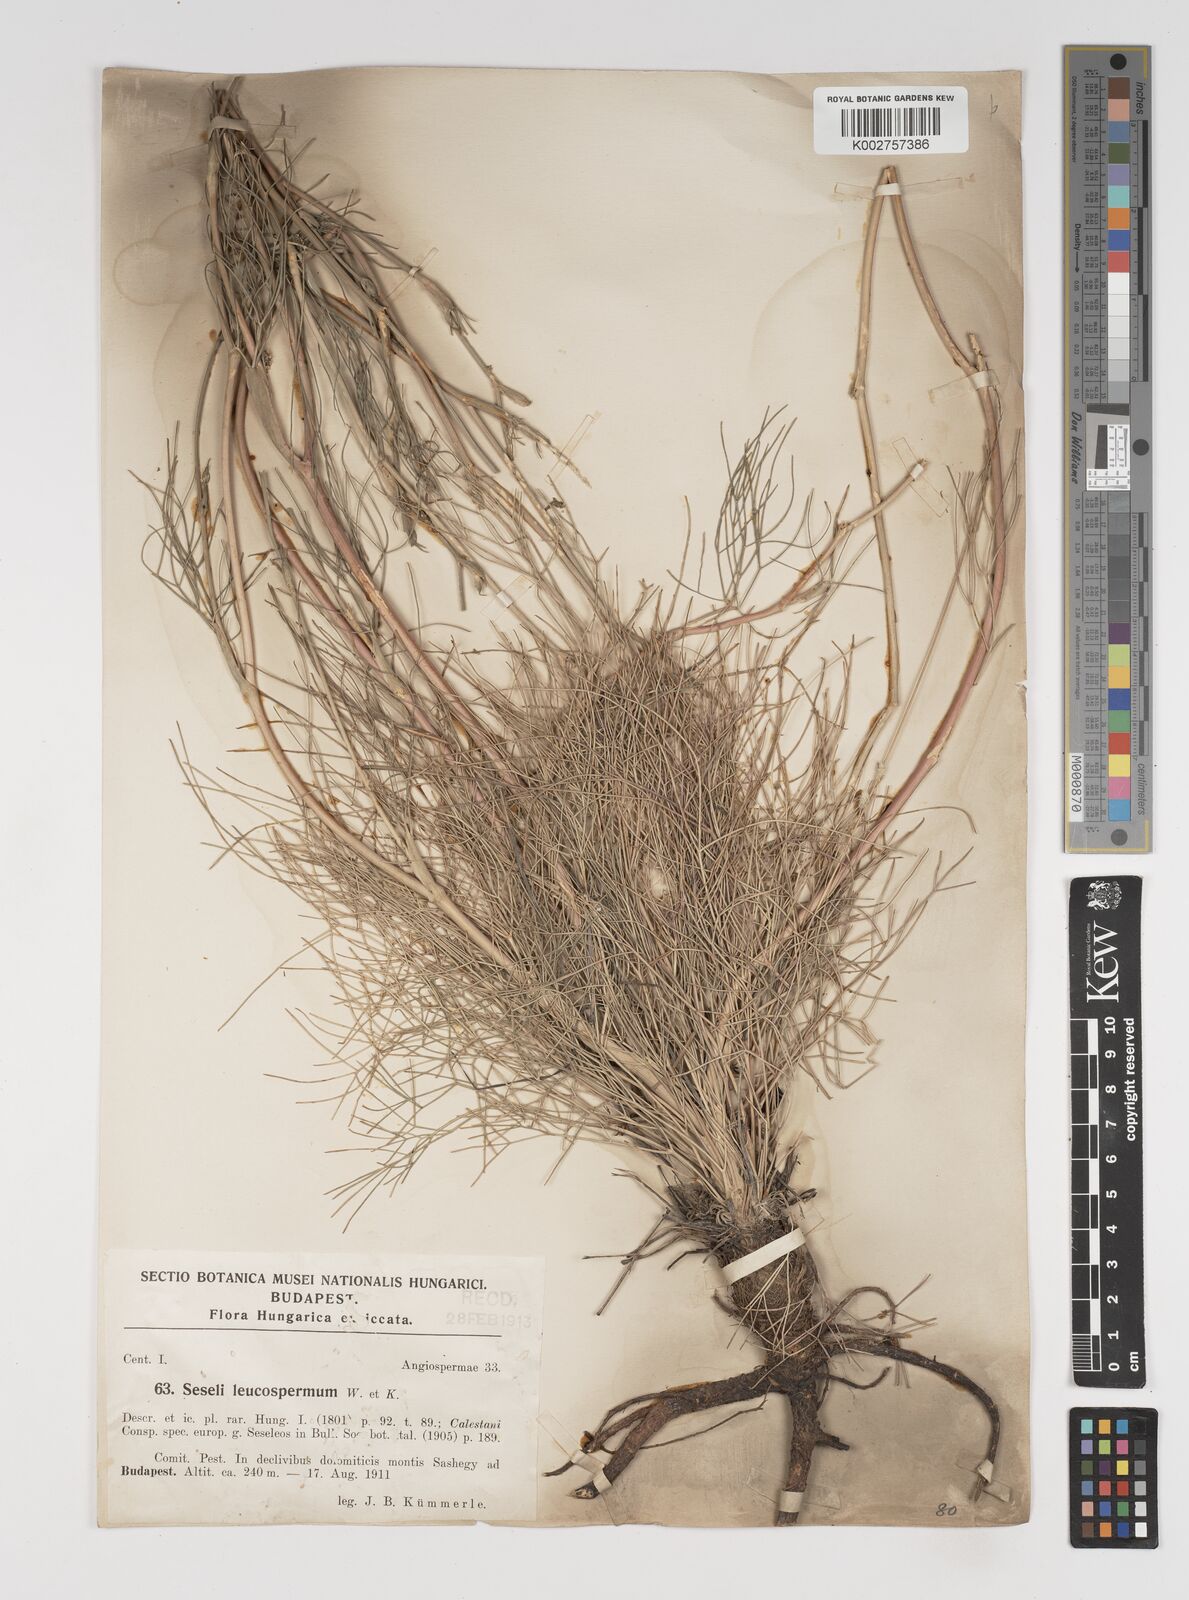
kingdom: Plantae
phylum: Tracheophyta
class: Magnoliopsida
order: Apiales
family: Apiaceae
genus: Seseli
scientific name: Seseli leucospermum
